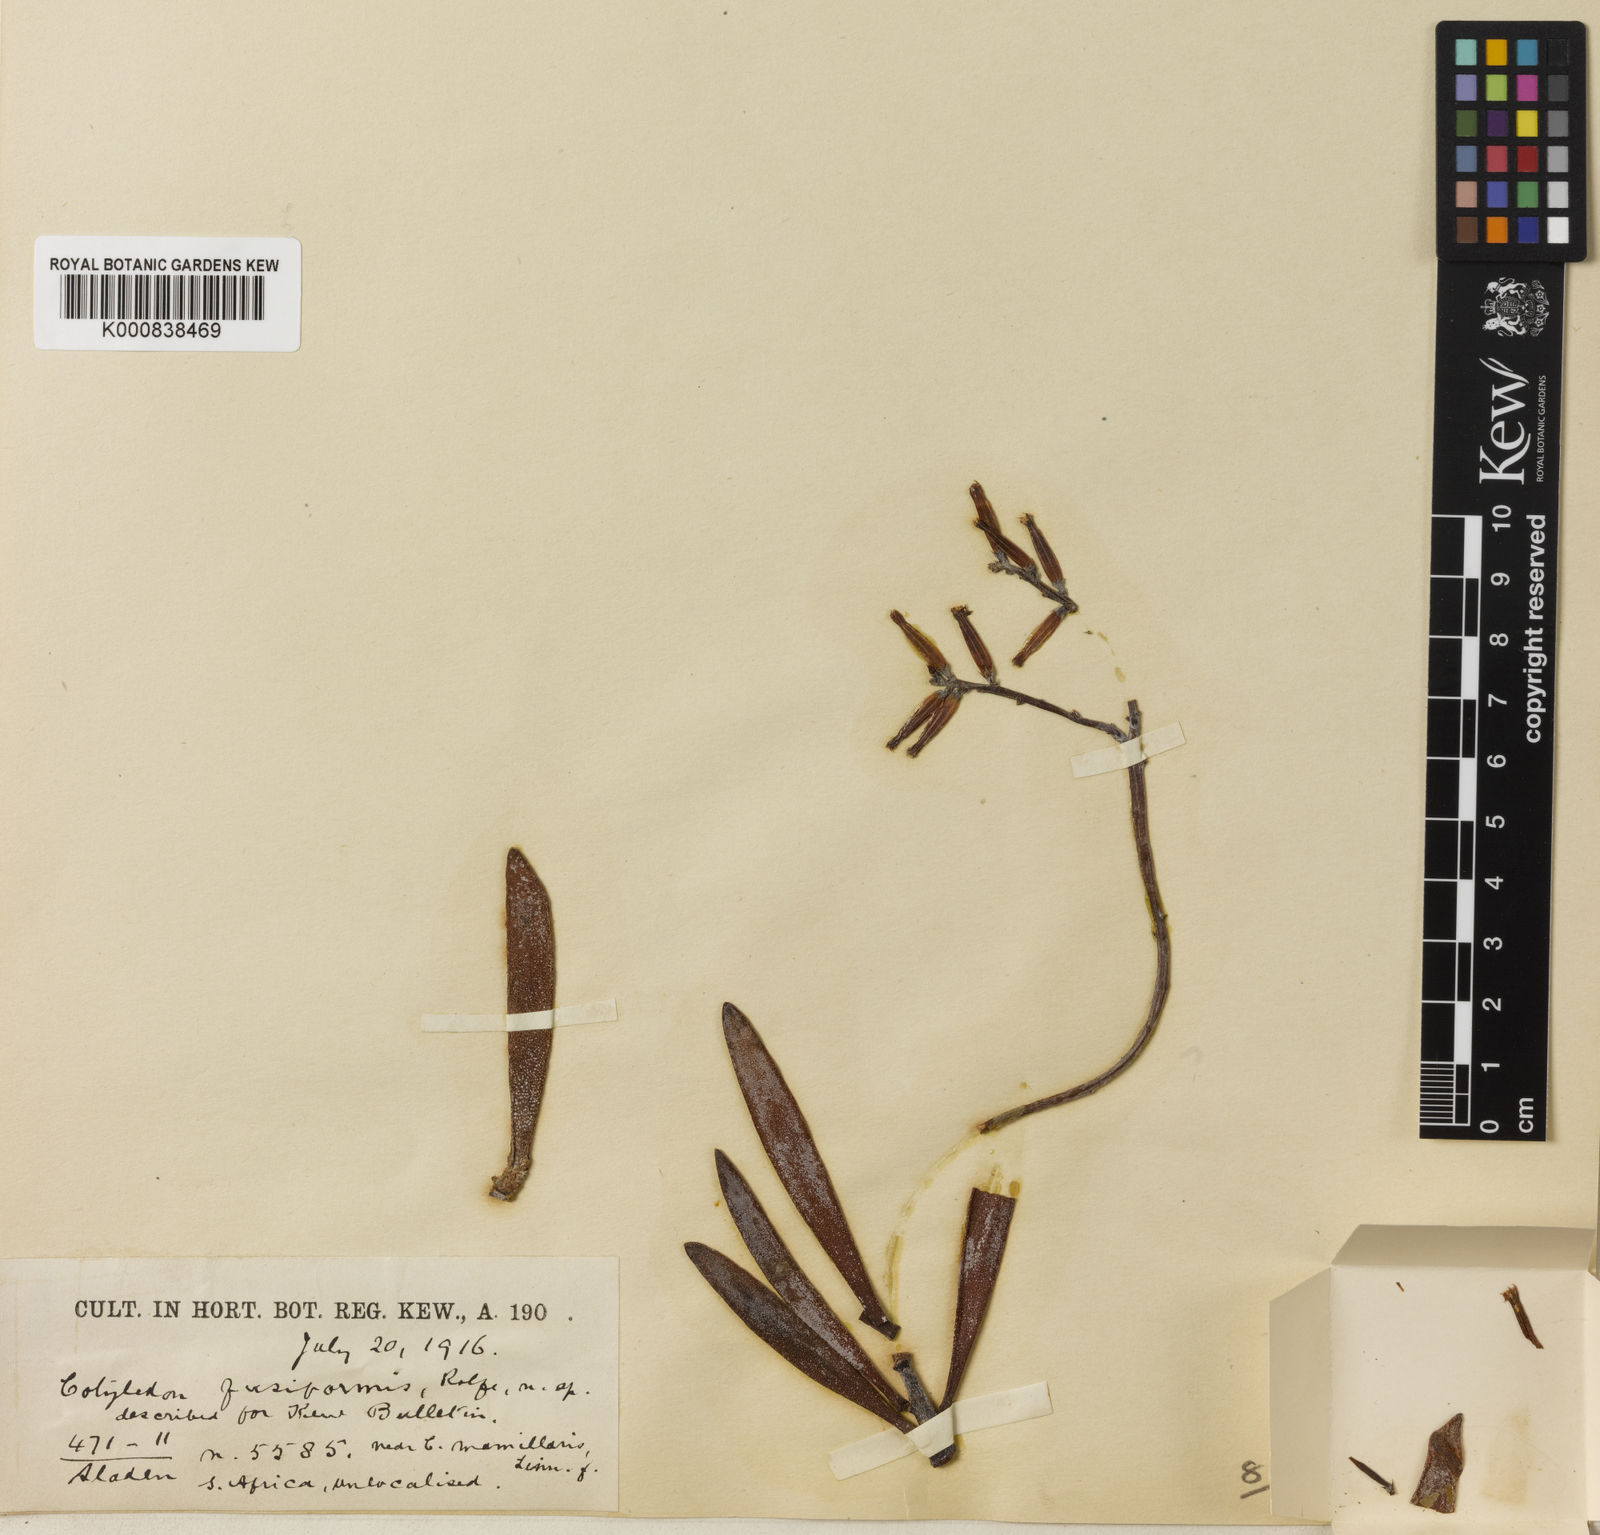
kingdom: Plantae
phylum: Tracheophyta
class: Magnoliopsida
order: Saxifragales
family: Crassulaceae
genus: Adromischus
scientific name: Adromischus filicaulis
